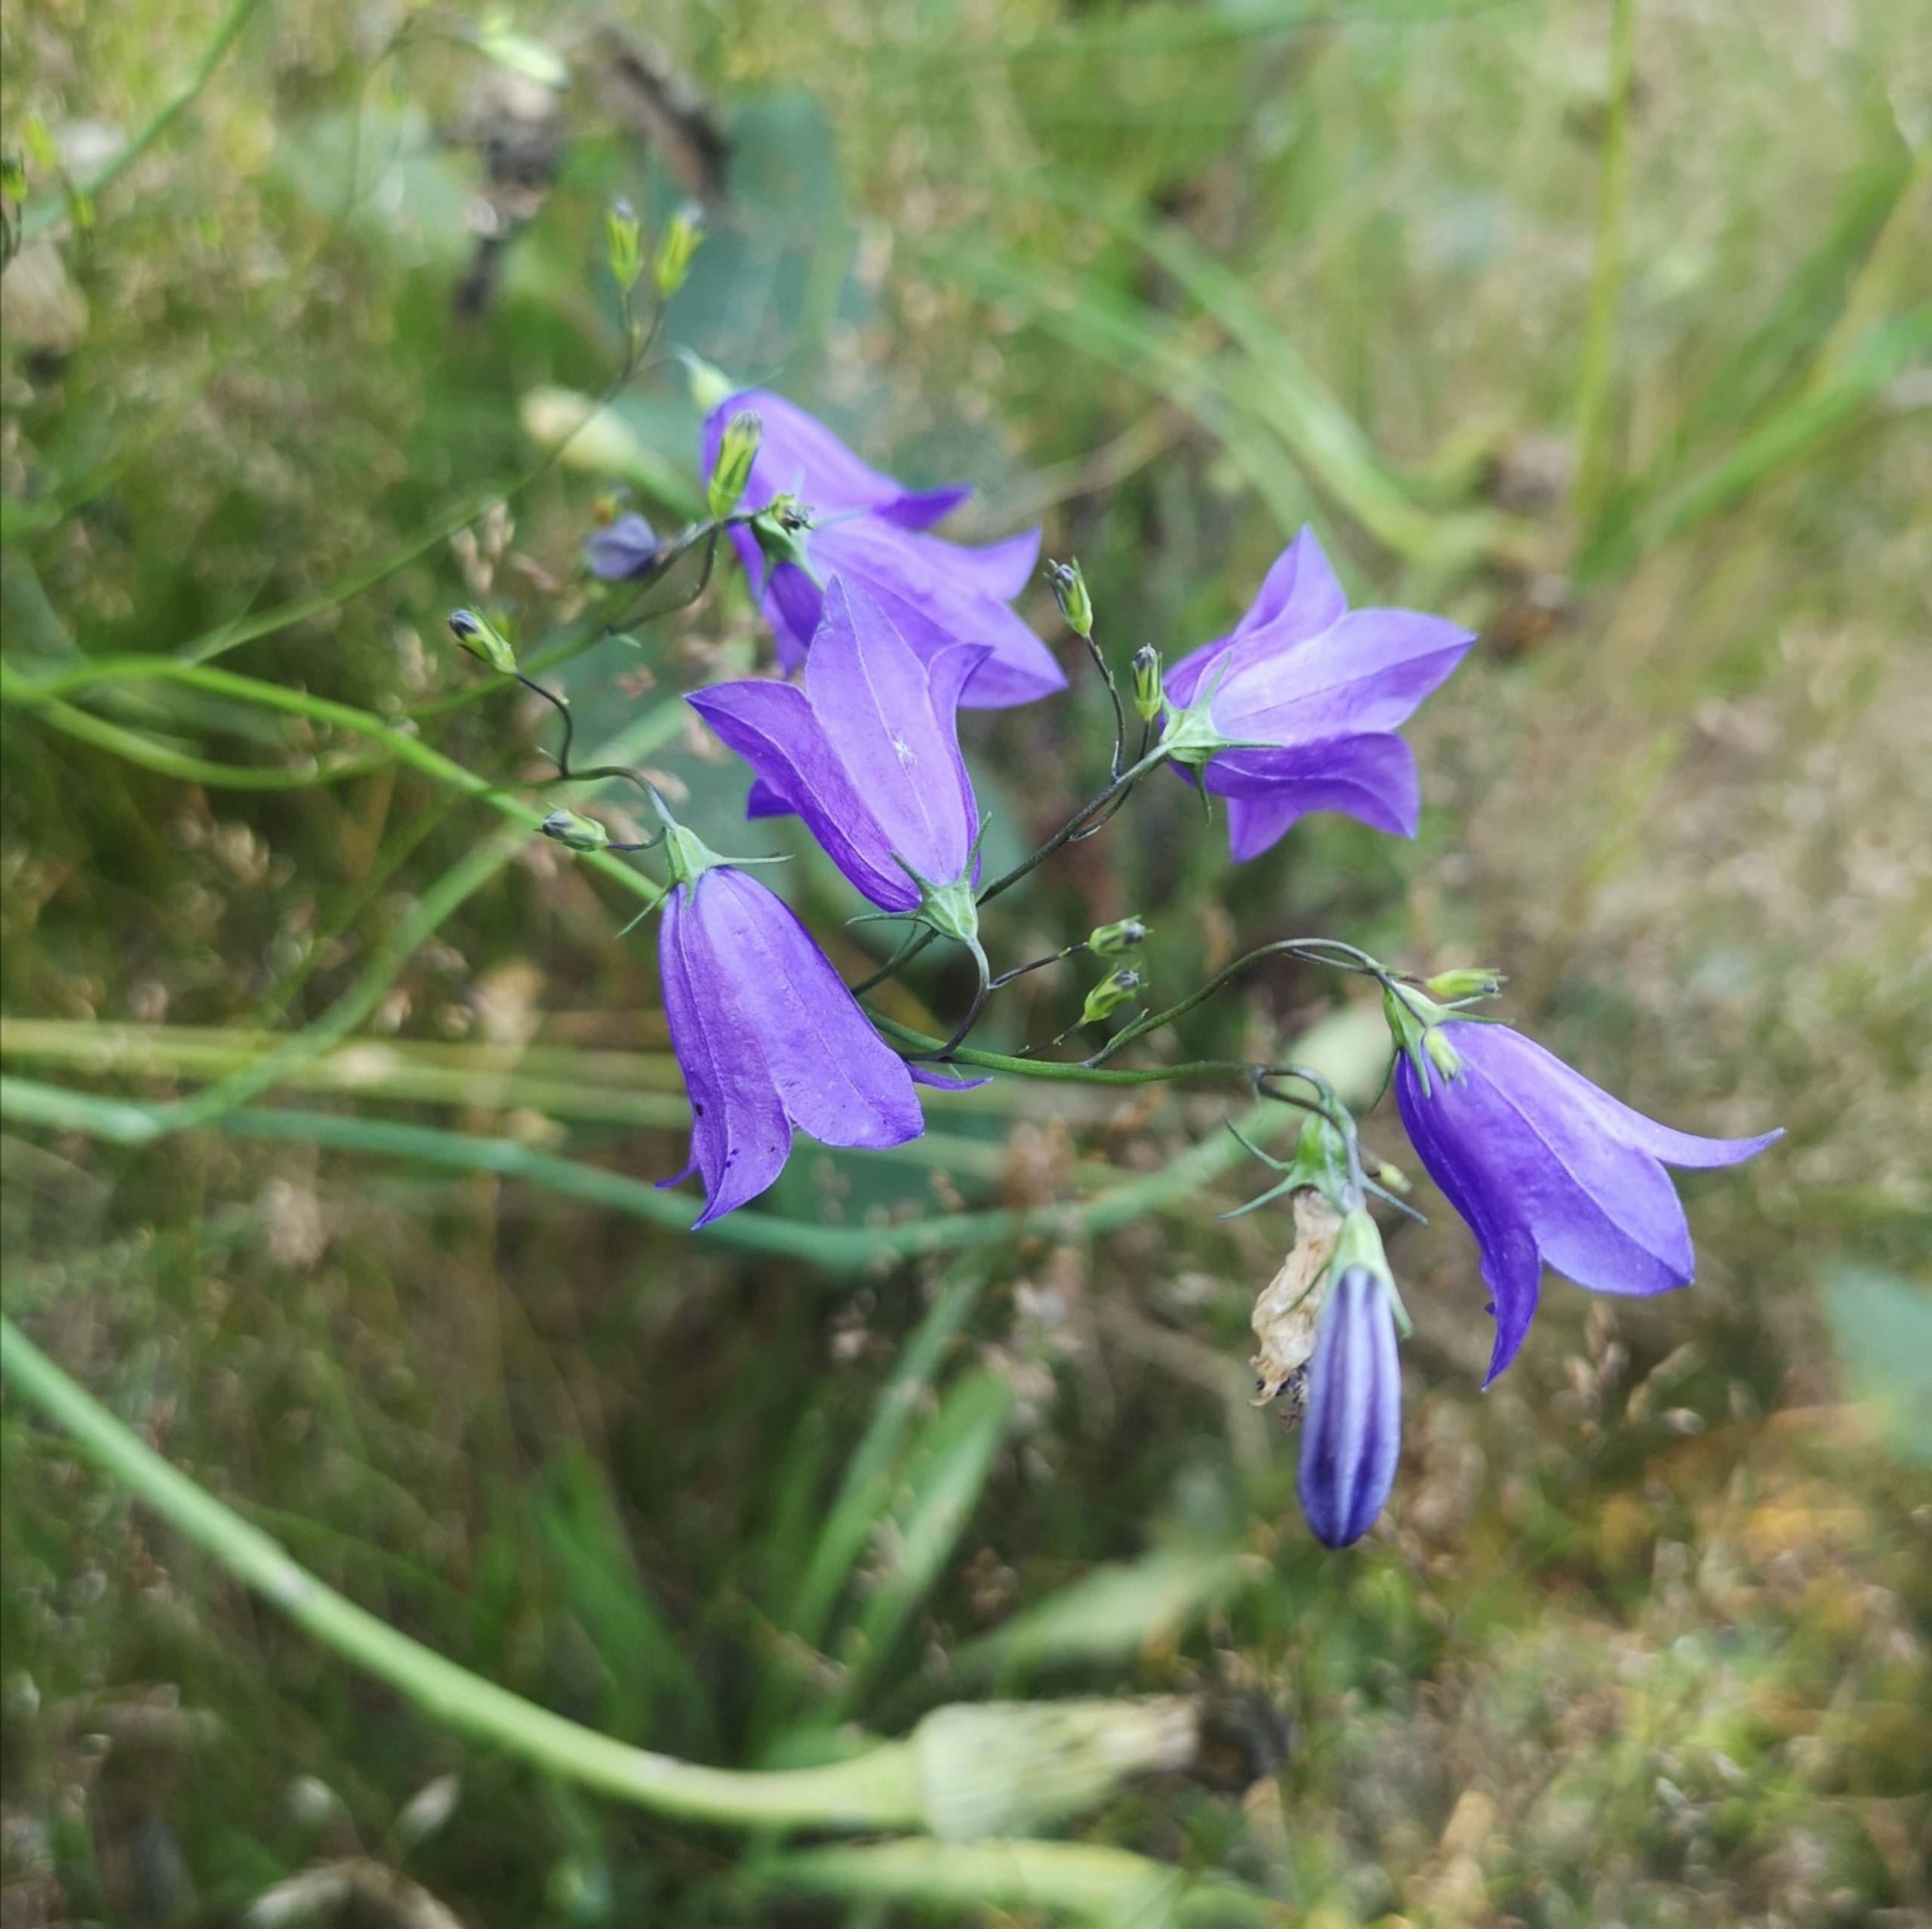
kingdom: Plantae
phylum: Tracheophyta
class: Magnoliopsida
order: Asterales
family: Campanulaceae
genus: Campanula
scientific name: Campanula rotundifolia
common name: Liden klokke
